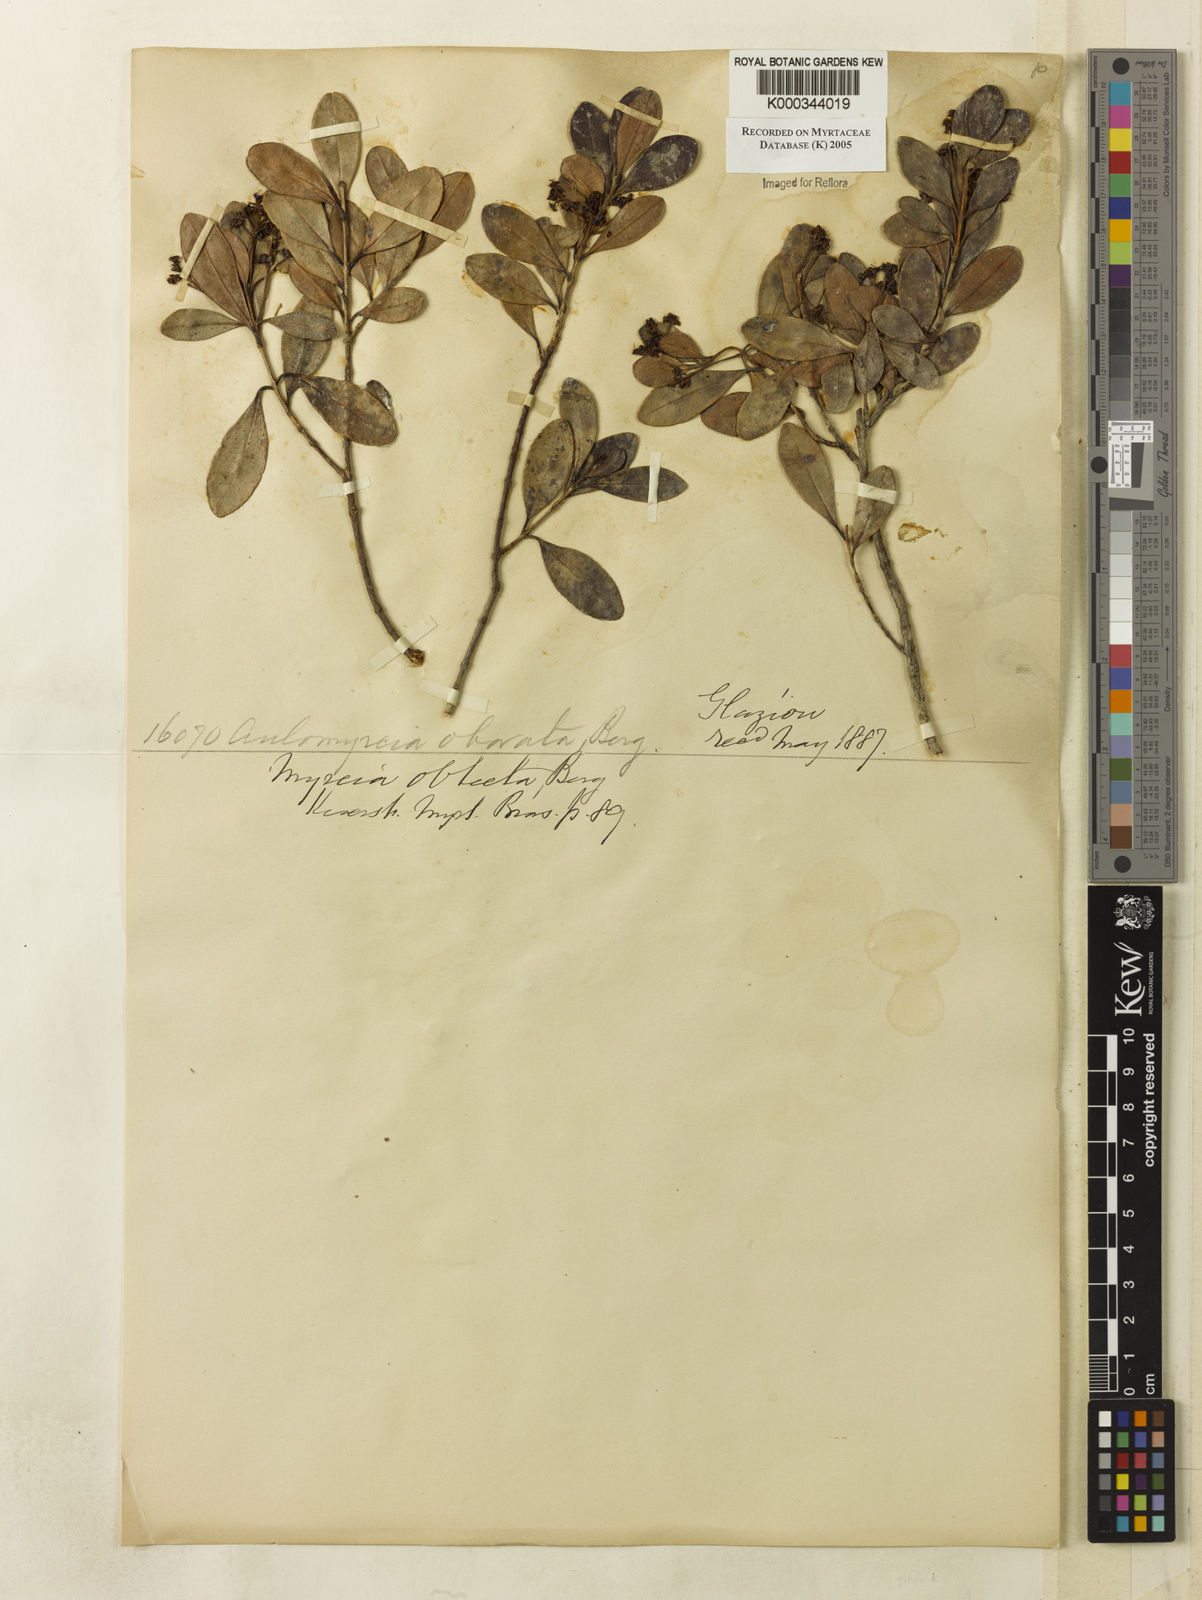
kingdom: Plantae
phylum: Tracheophyta
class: Magnoliopsida
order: Myrtales
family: Myrtaceae
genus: Myrcia
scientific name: Myrcia guianensis
